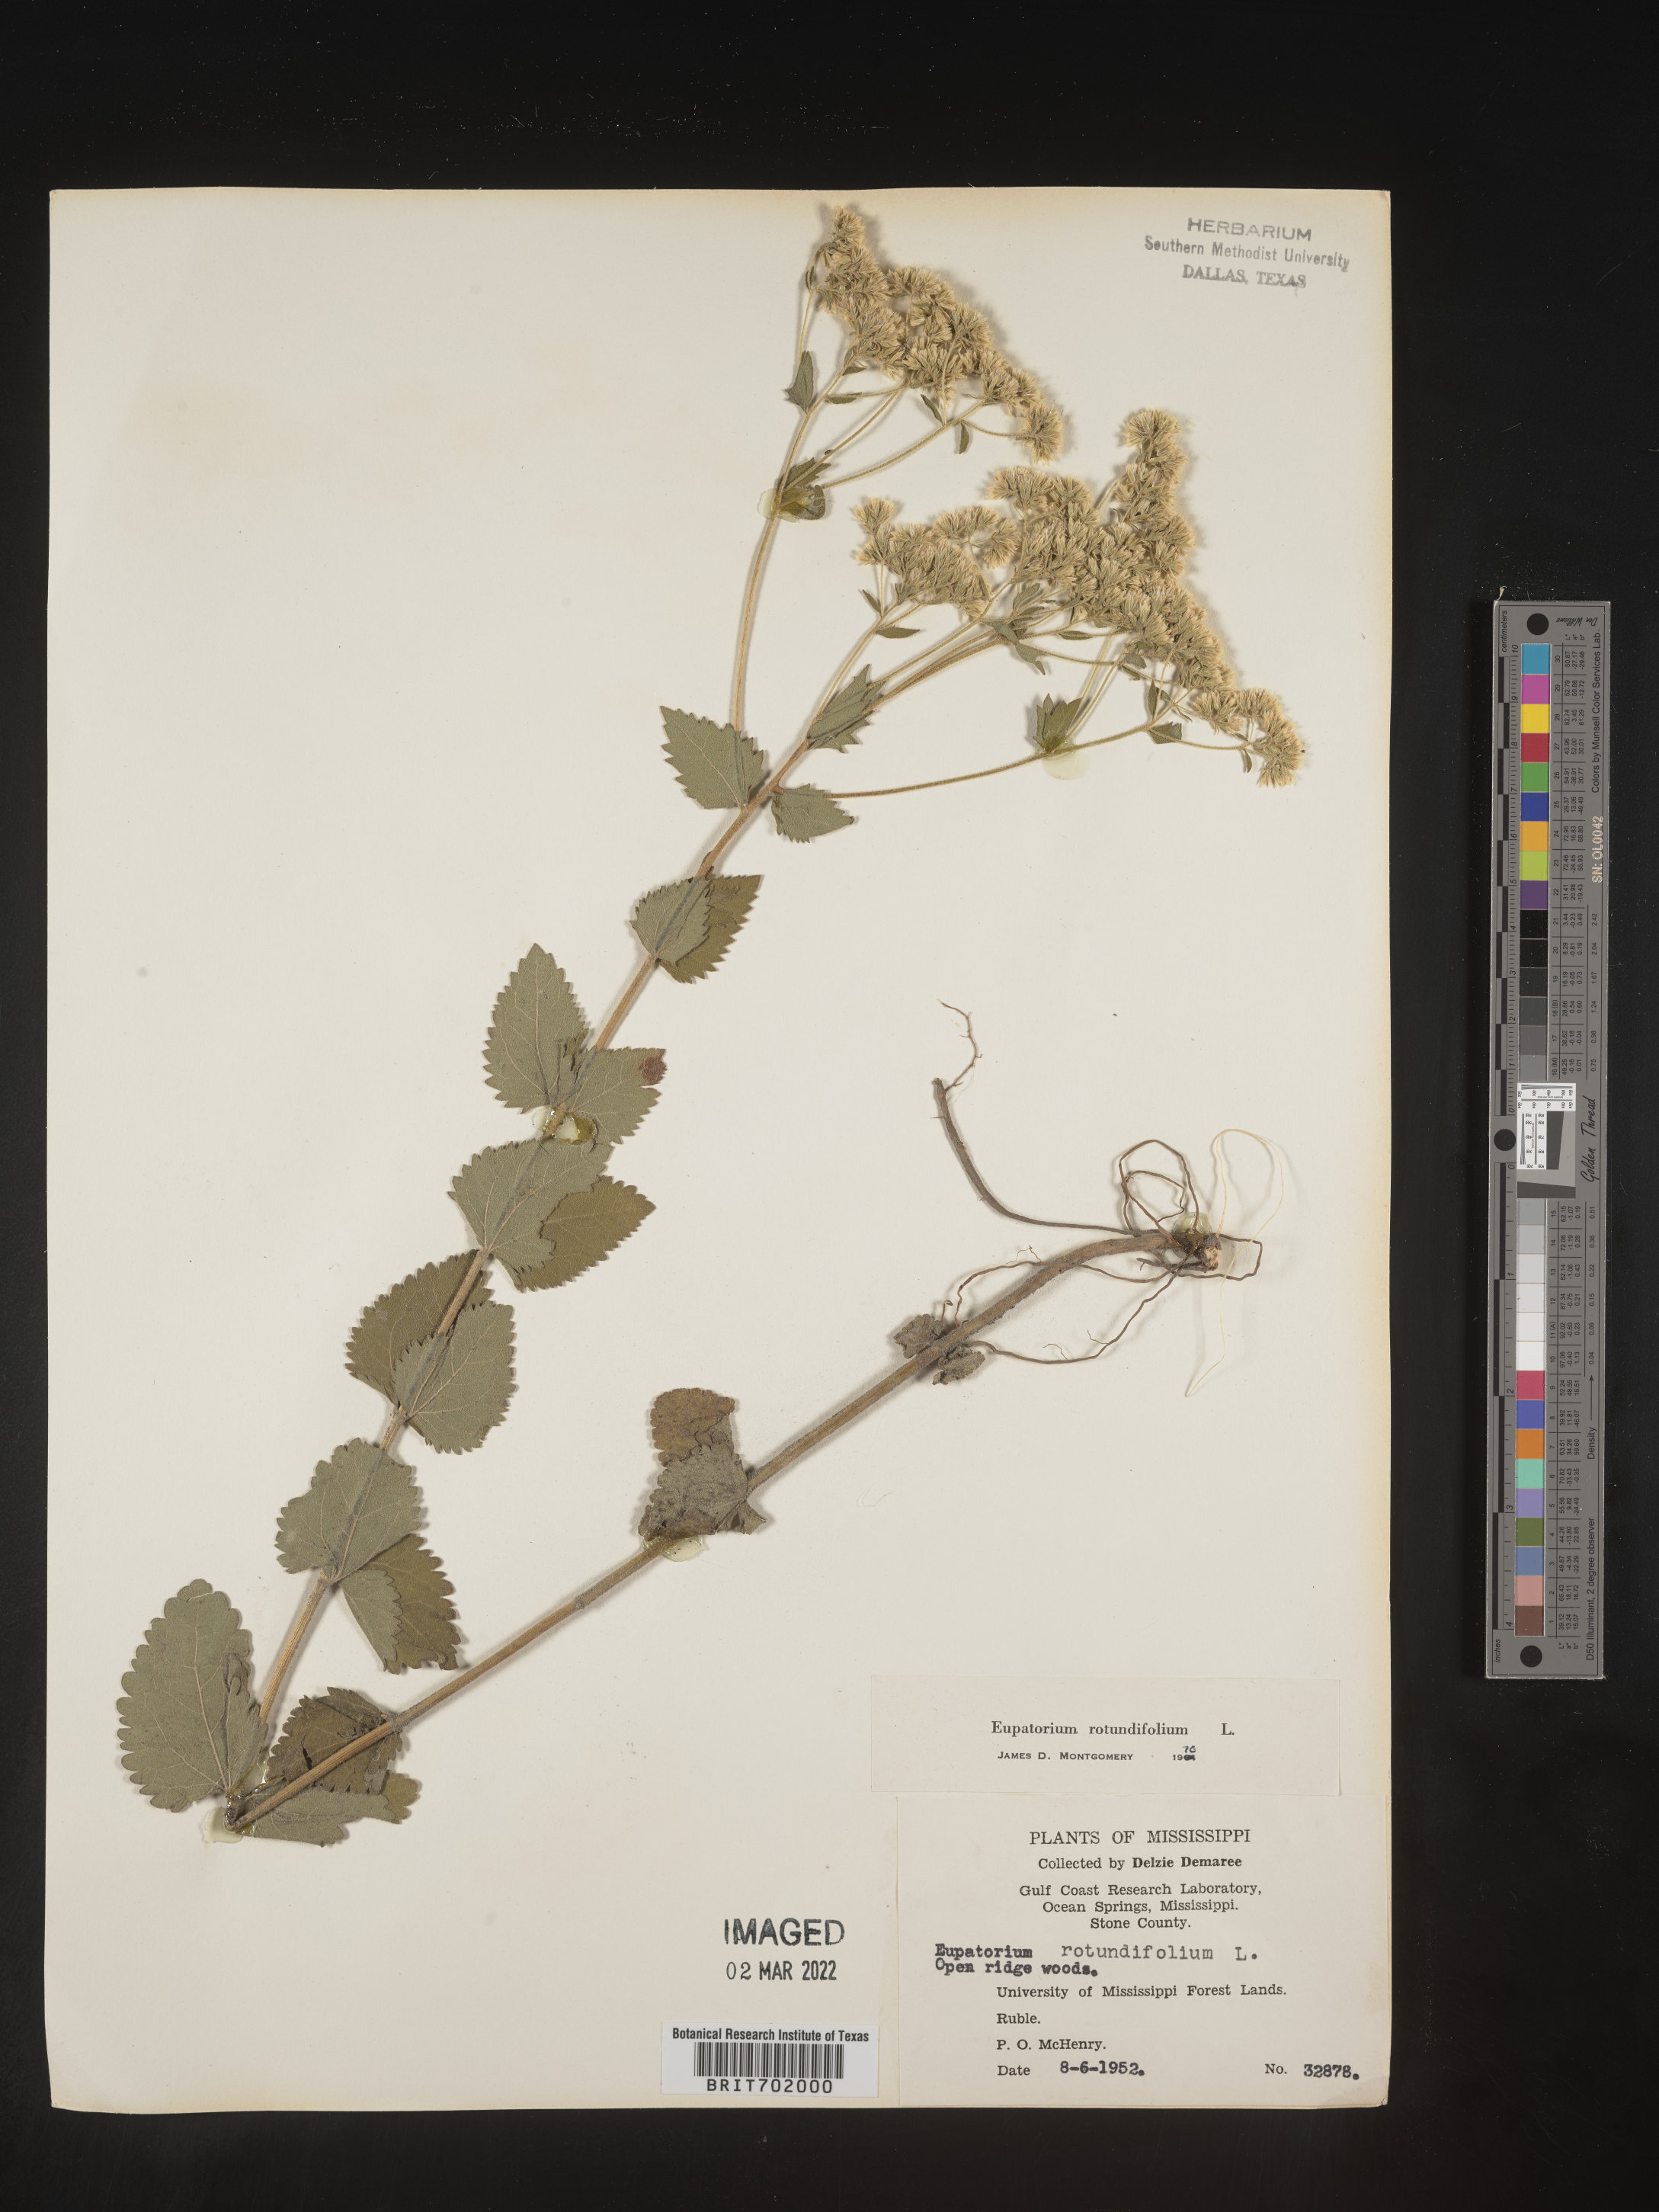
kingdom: Plantae
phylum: Tracheophyta
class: Magnoliopsida
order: Asterales
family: Asteraceae
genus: Eupatorium
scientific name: Eupatorium rotundifolium
